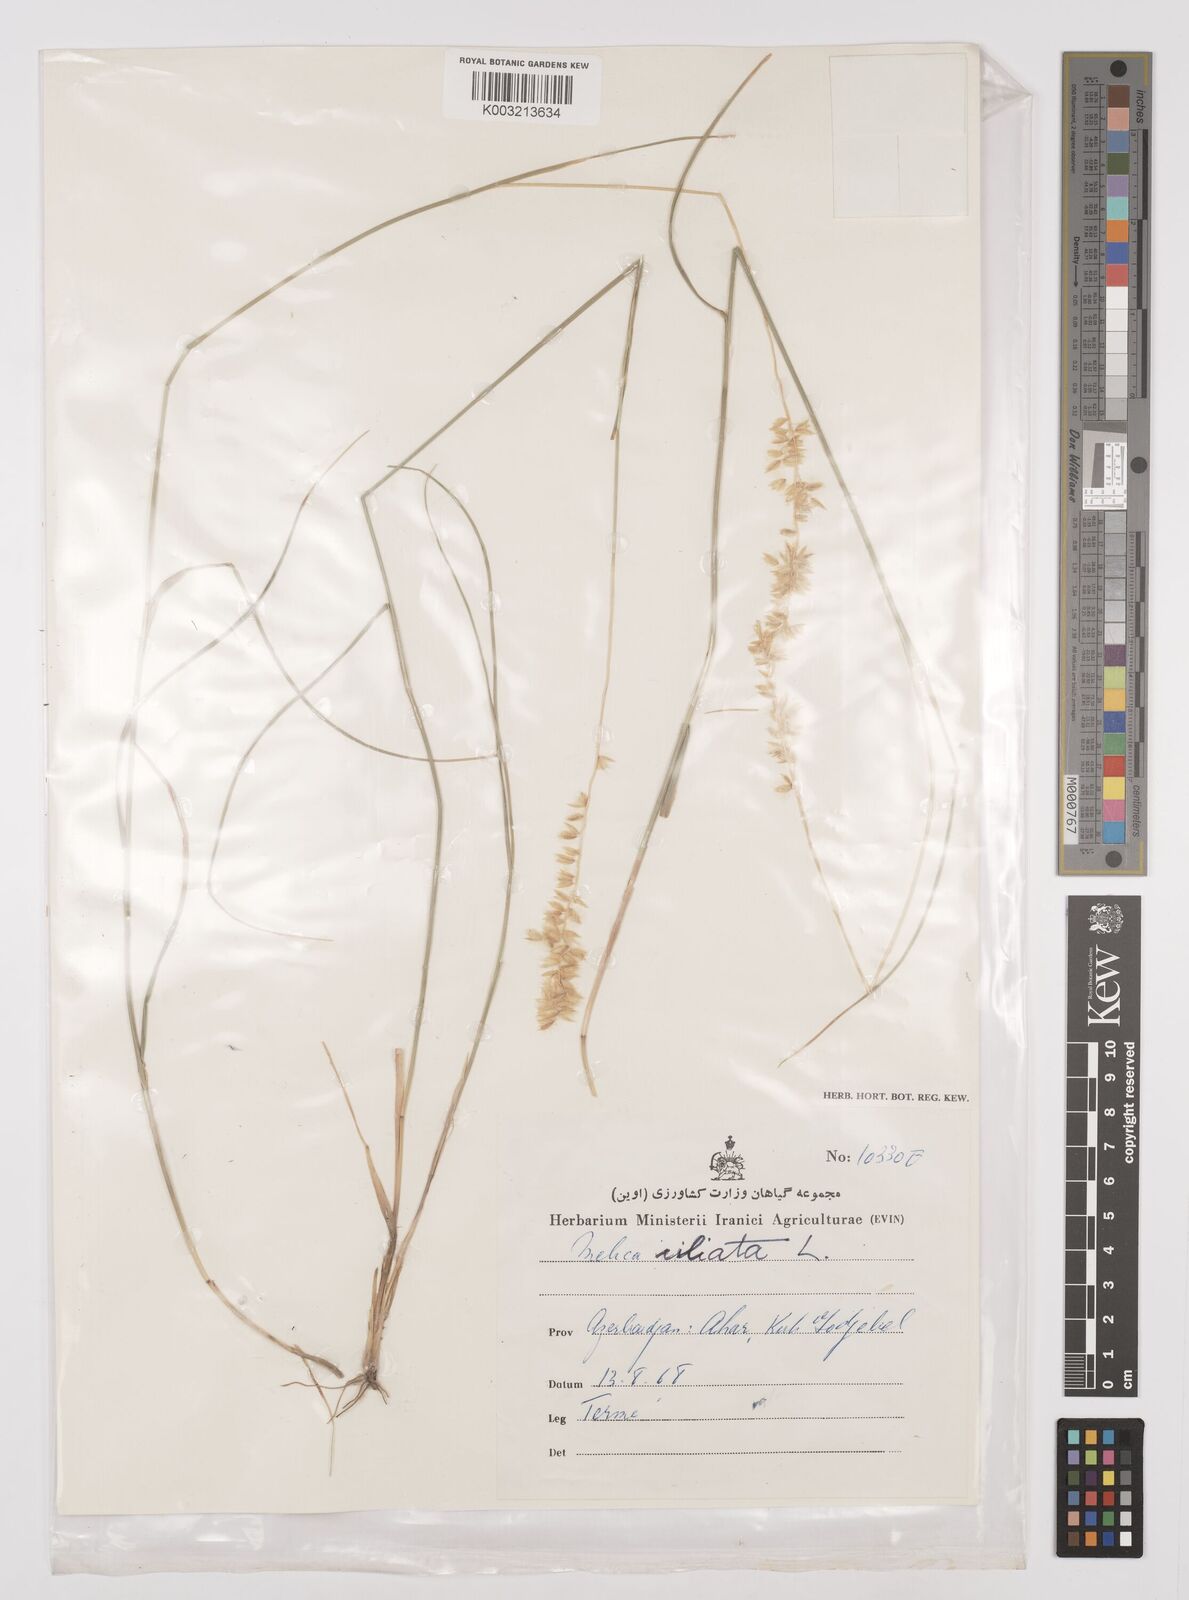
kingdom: Plantae
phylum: Tracheophyta
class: Liliopsida
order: Poales
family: Poaceae
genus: Melica
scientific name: Melica ciliata
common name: Hairy melicgrass
